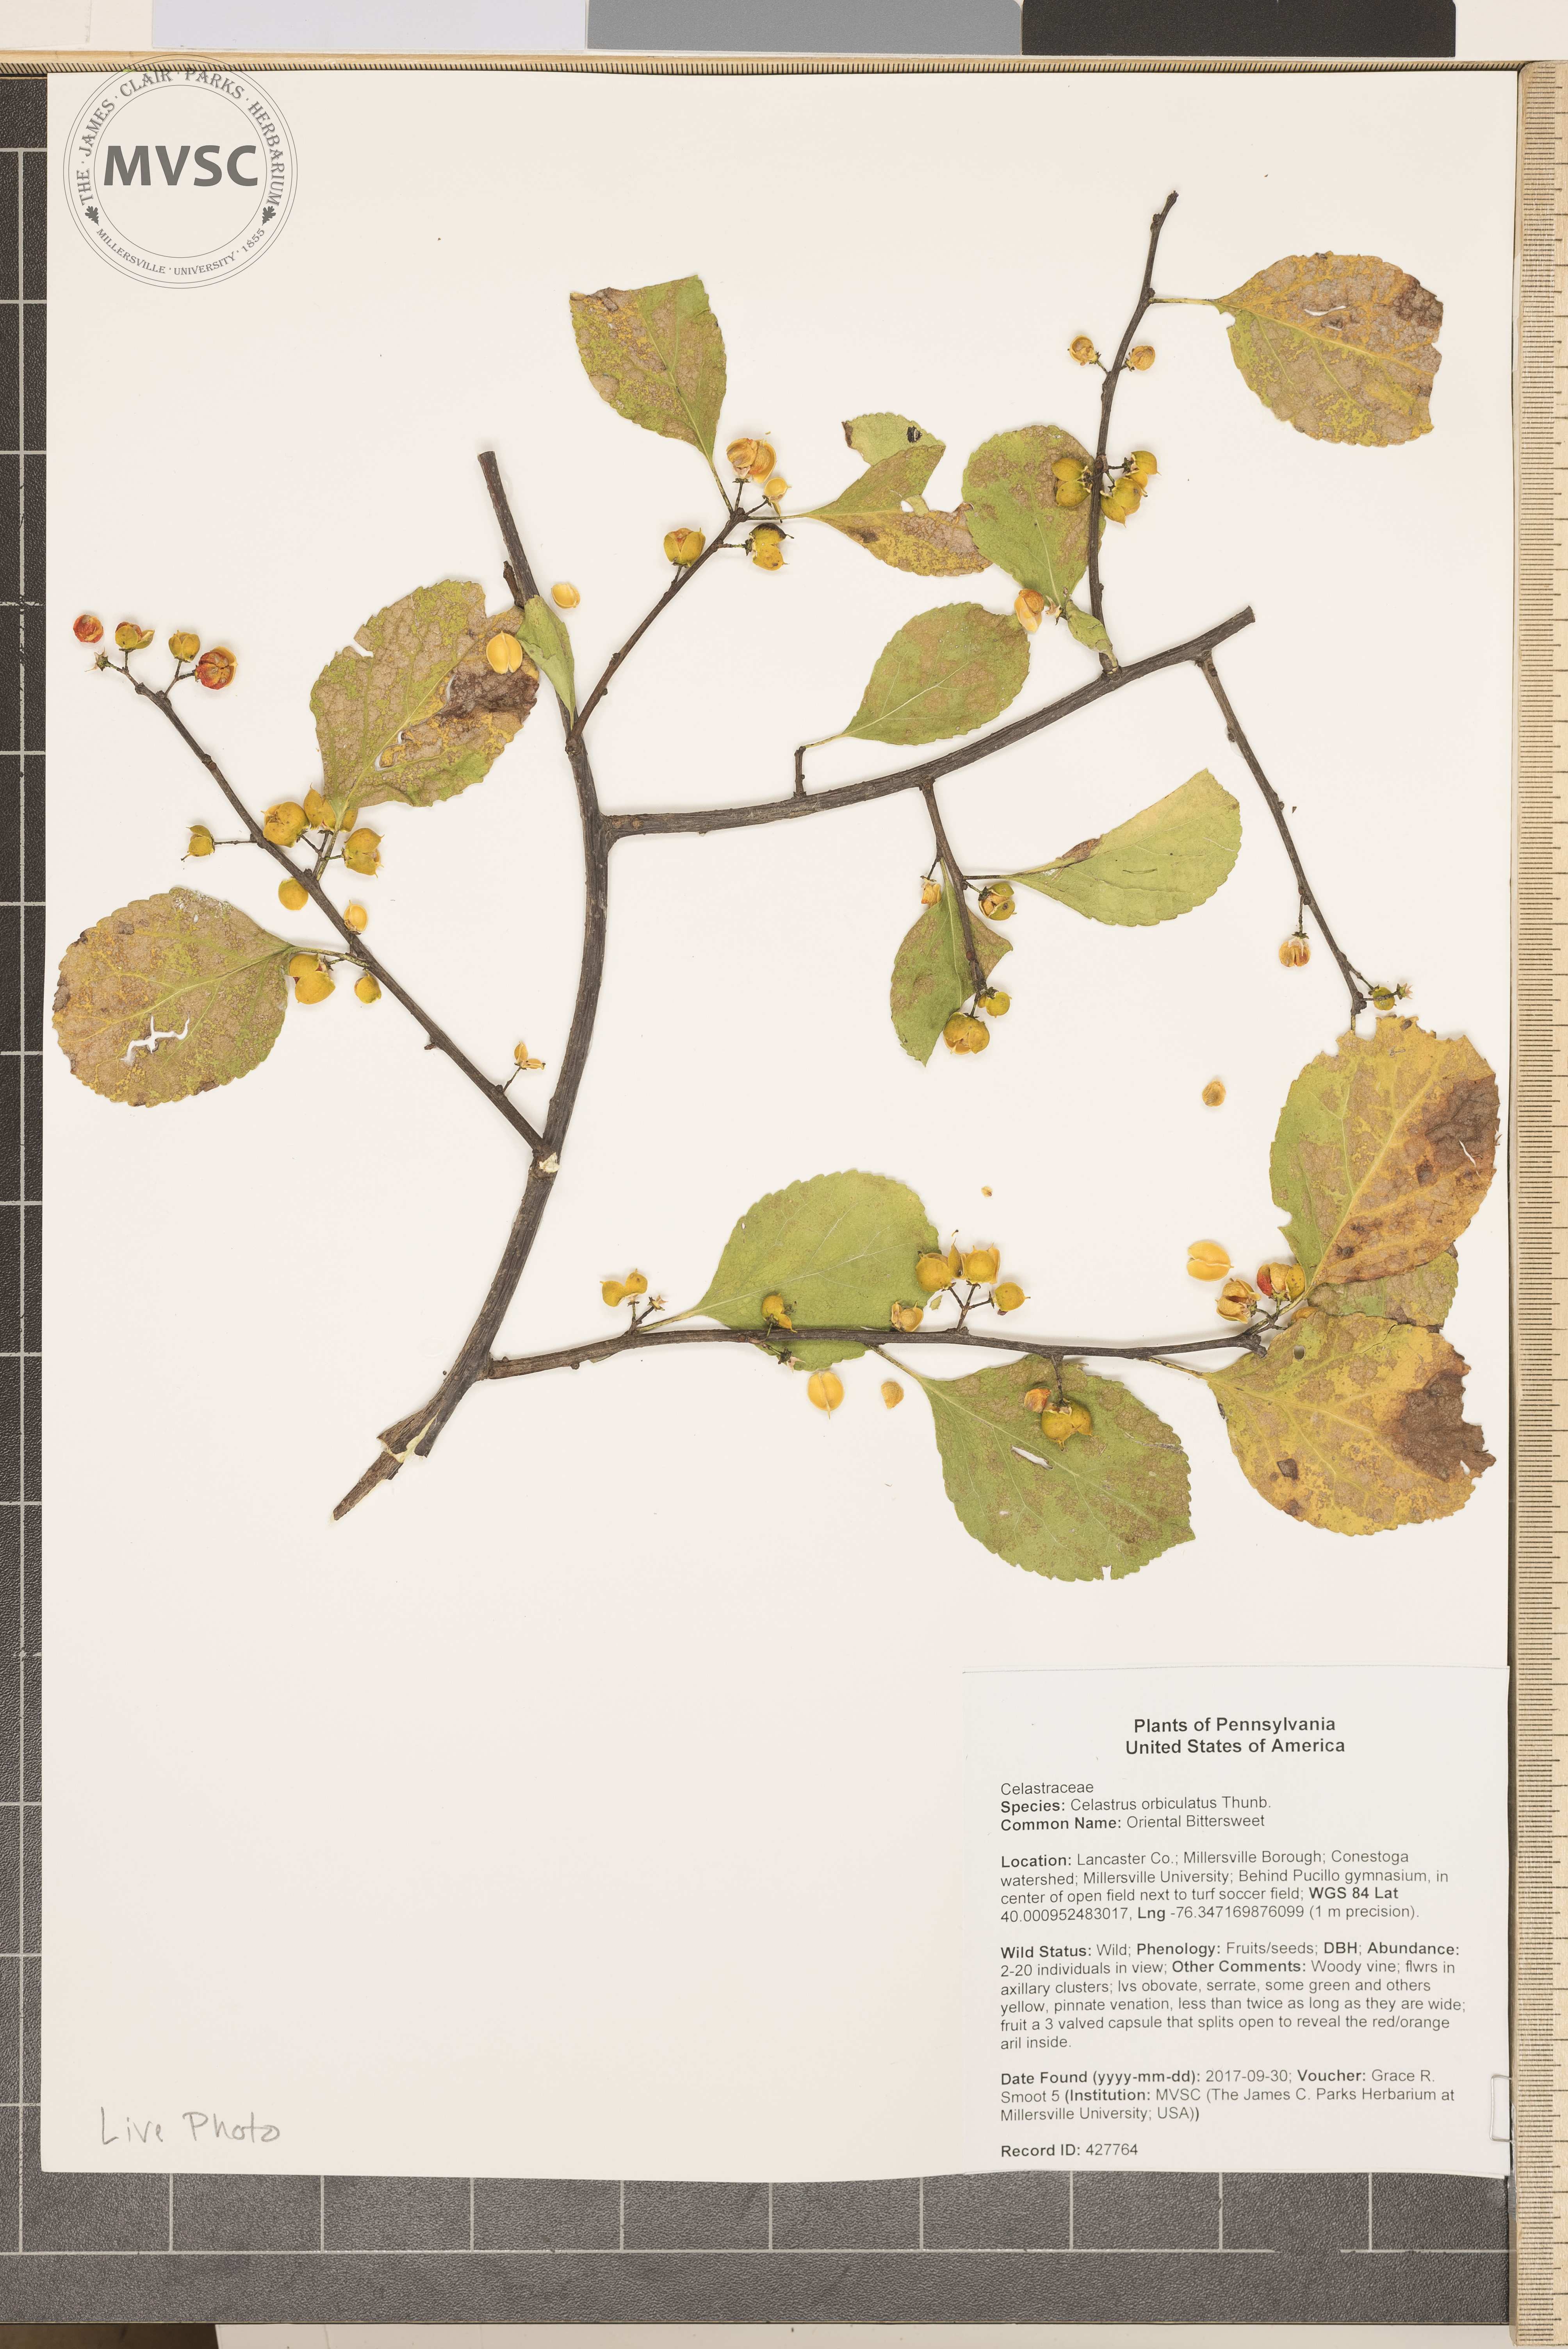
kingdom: Plantae
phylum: Tracheophyta
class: Magnoliopsida
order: Celastrales
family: Celastraceae
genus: Celastrus
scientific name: Celastrus orbiculatus
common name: Oriental Bittersweet
